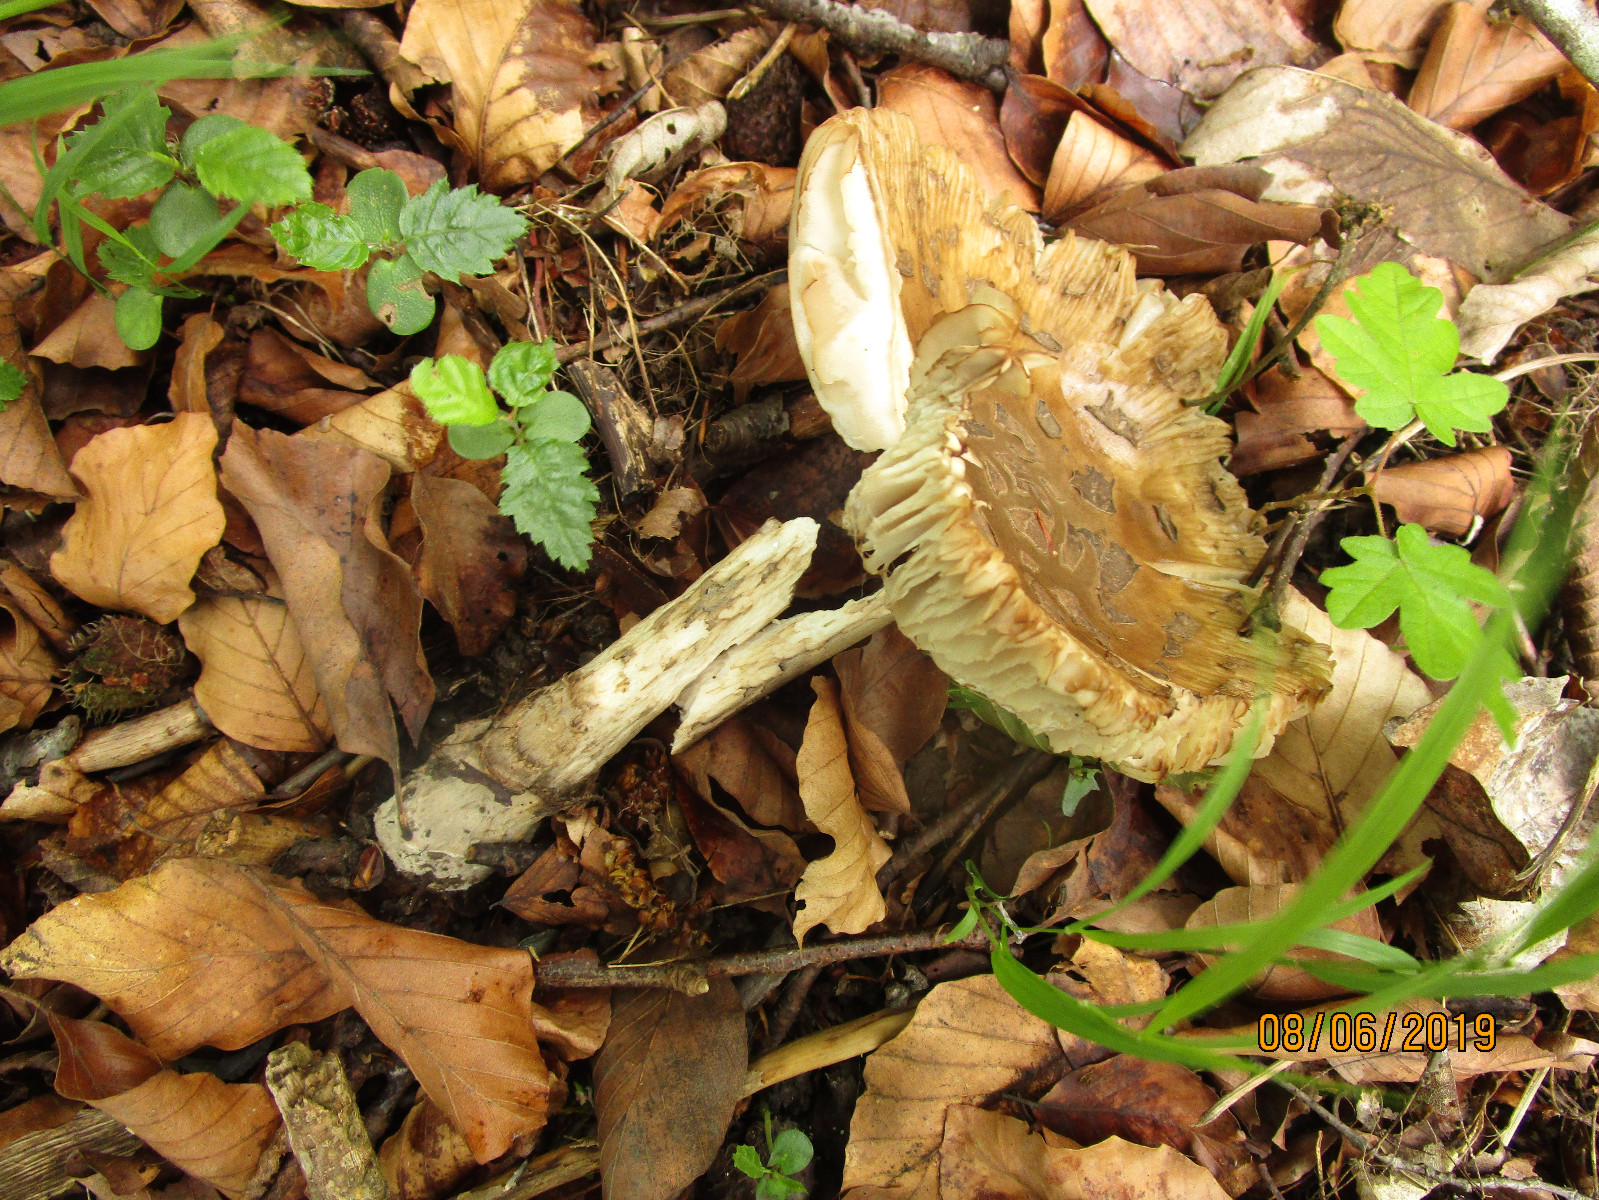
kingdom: Fungi
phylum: Basidiomycota
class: Agaricomycetes
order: Agaricales
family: Amanitaceae
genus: Amanita
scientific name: Amanita ceciliae
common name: stor kam-fluesvamp
